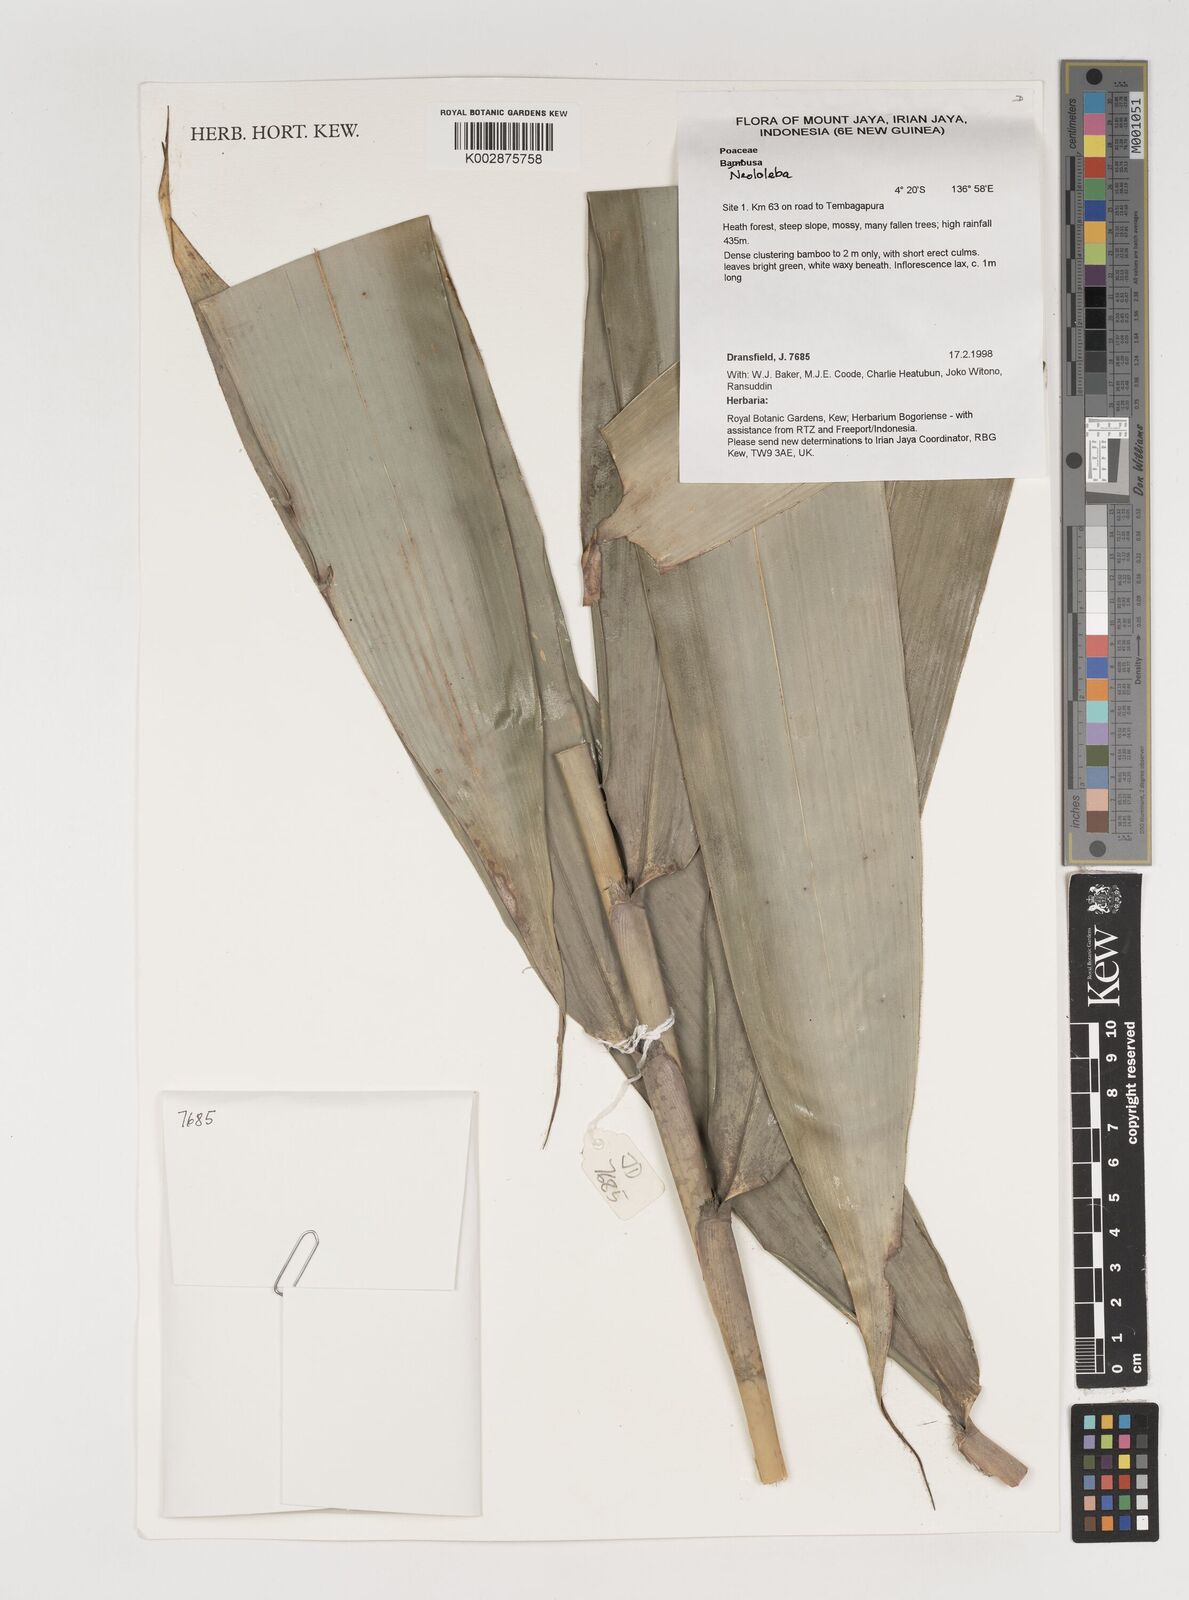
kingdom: Plantae
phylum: Tracheophyta
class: Liliopsida
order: Poales
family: Poaceae
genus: Neololeba
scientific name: Neololeba
